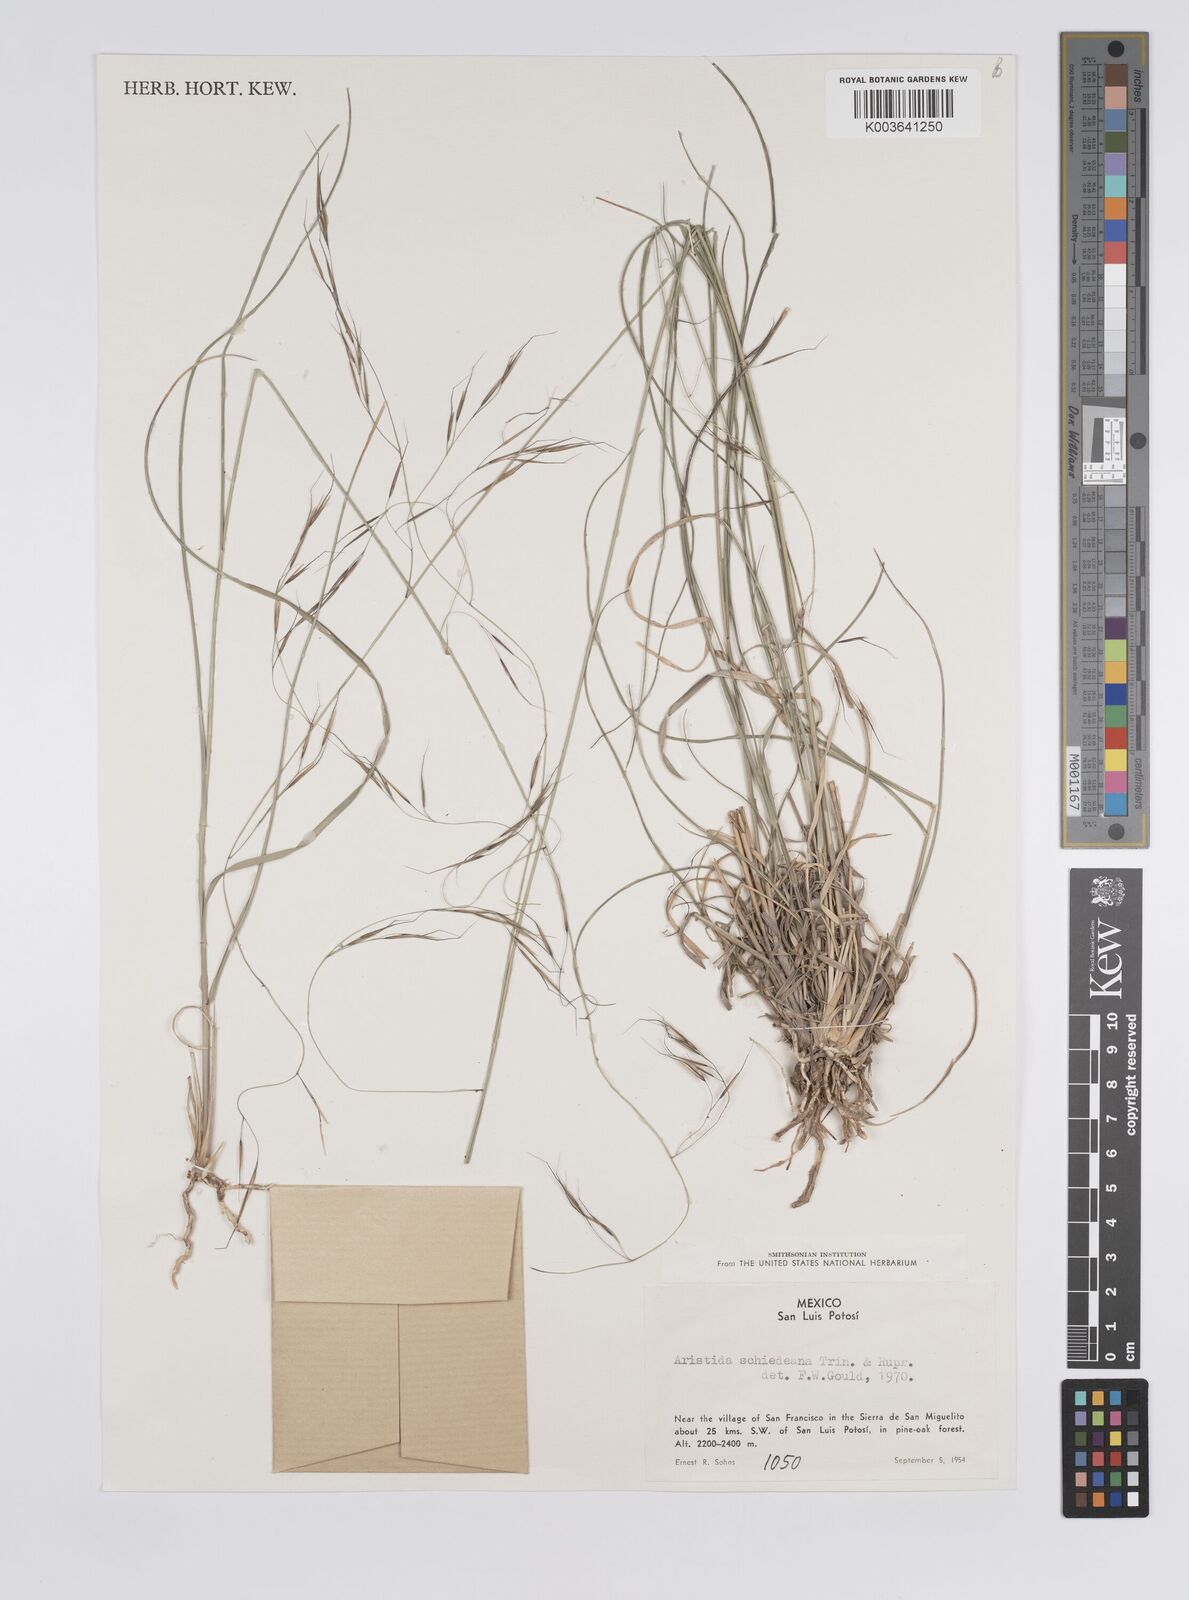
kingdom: Plantae
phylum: Tracheophyta
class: Liliopsida
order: Poales
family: Poaceae
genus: Aristida
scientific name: Aristida schiedeana
